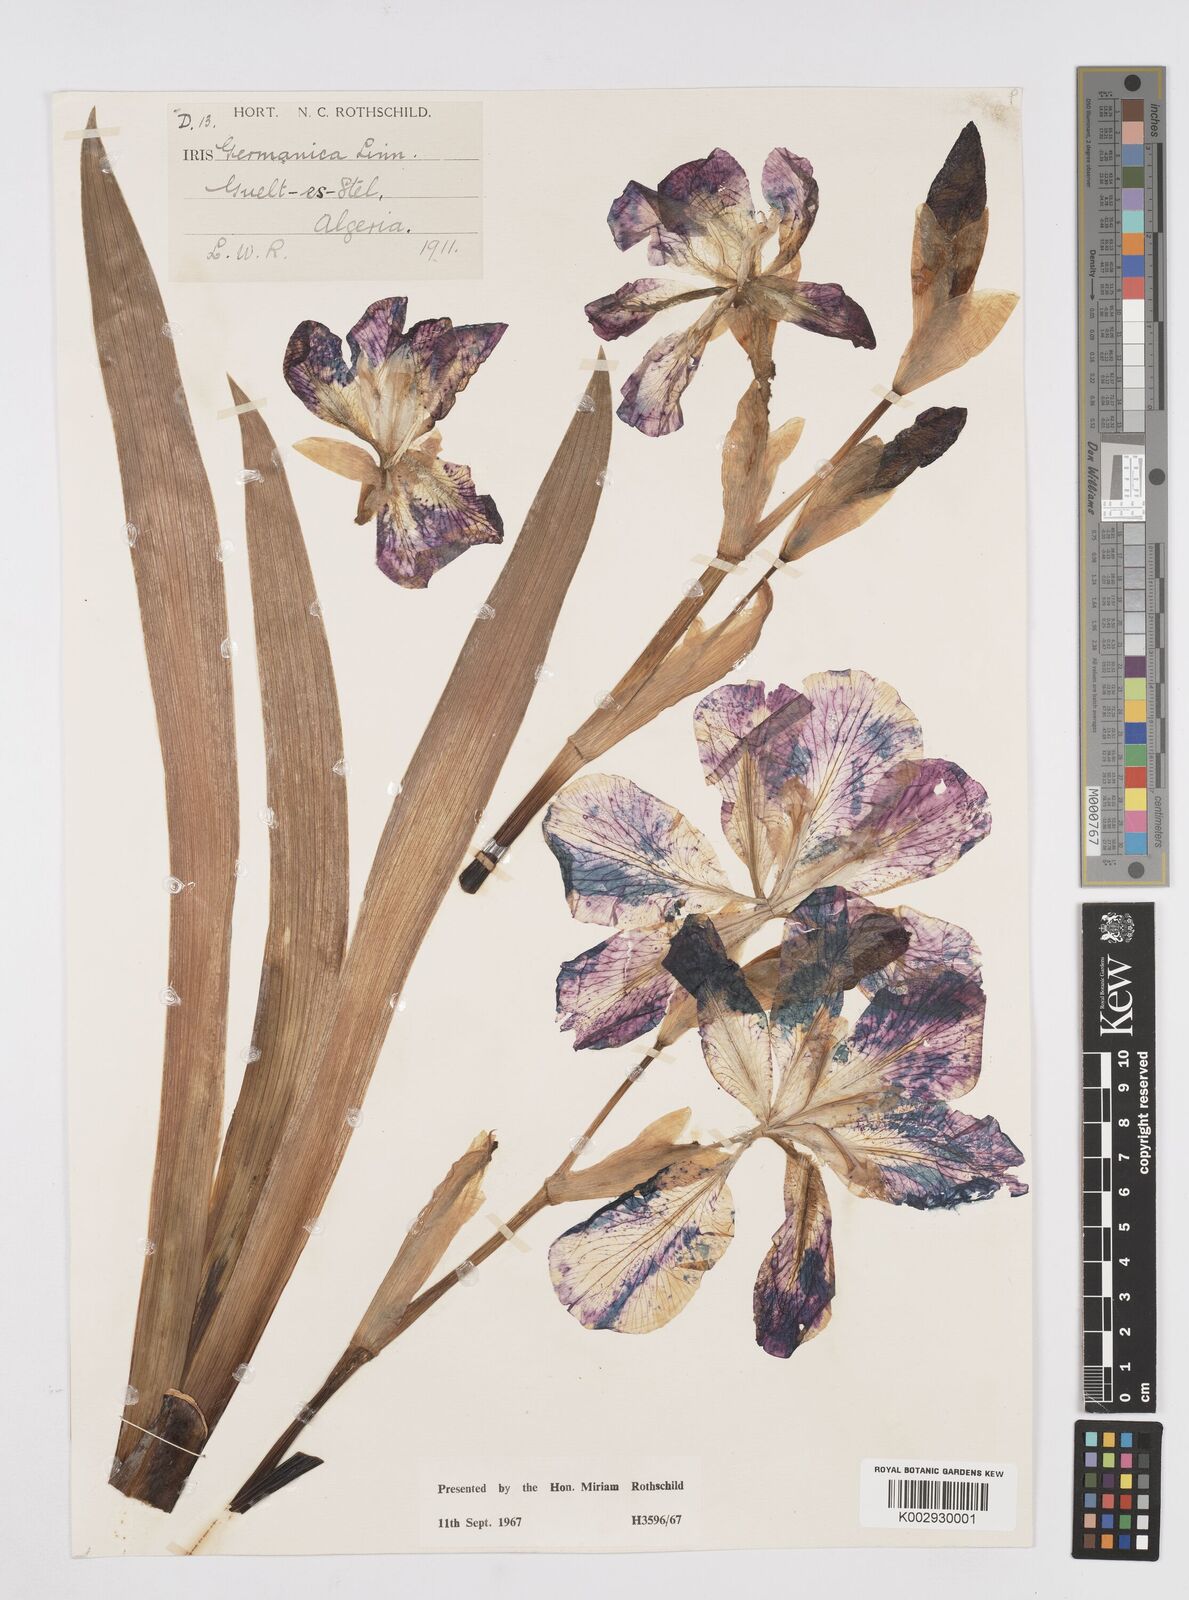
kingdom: Plantae
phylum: Tracheophyta
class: Liliopsida
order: Asparagales
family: Iridaceae
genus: Iris
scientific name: Iris germanica
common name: German iris
